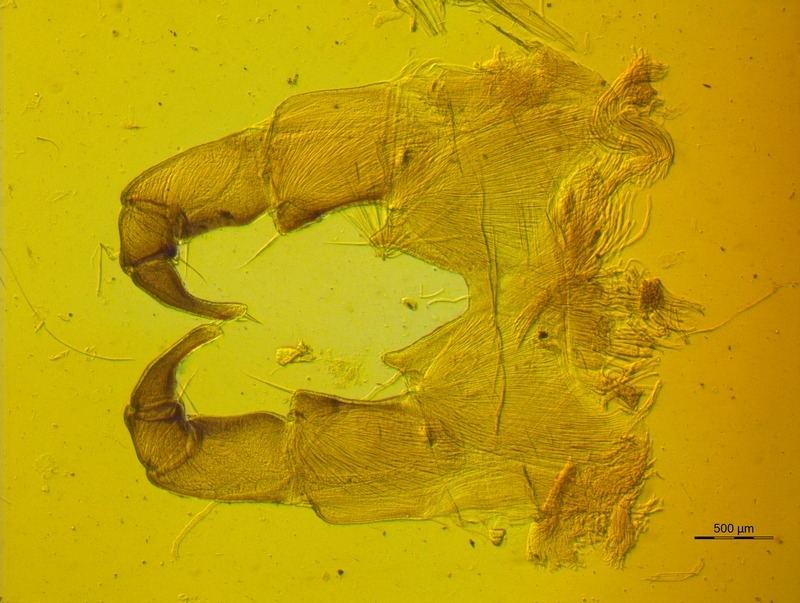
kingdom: Animalia
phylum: Arthropoda
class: Diplopoda
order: Glomerida
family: Glomeridae
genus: Loboglomeris
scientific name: Loboglomeris rugifera
